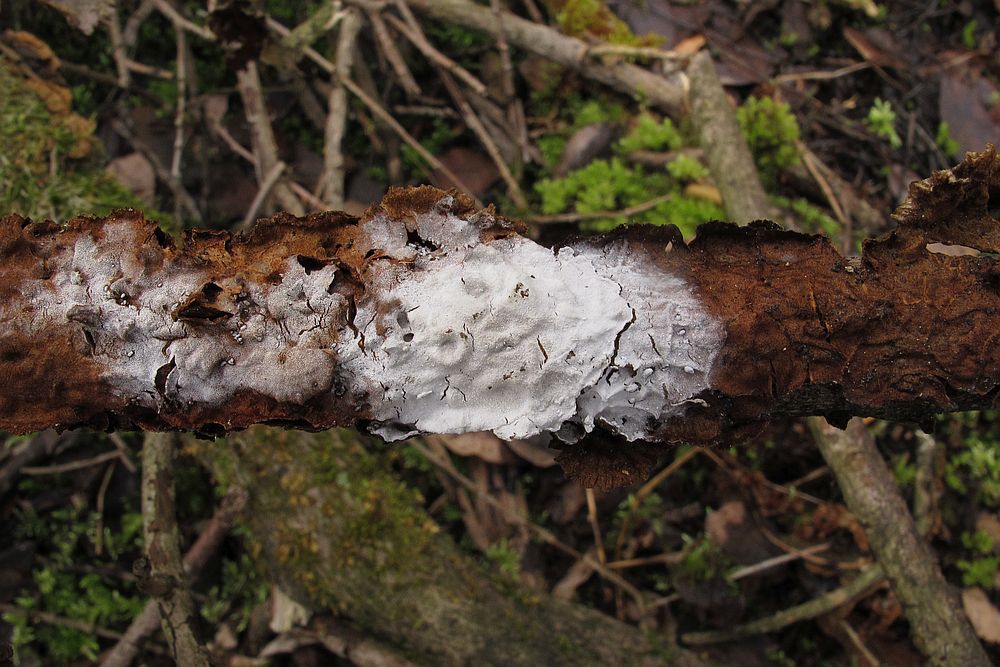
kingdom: Fungi
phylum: Basidiomycota
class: Agaricomycetes
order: Cantharellales
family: Hydnaceae
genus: Sistotrema
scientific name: Sistotrema brinkmannii
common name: bønnesporet kroneskorpe
